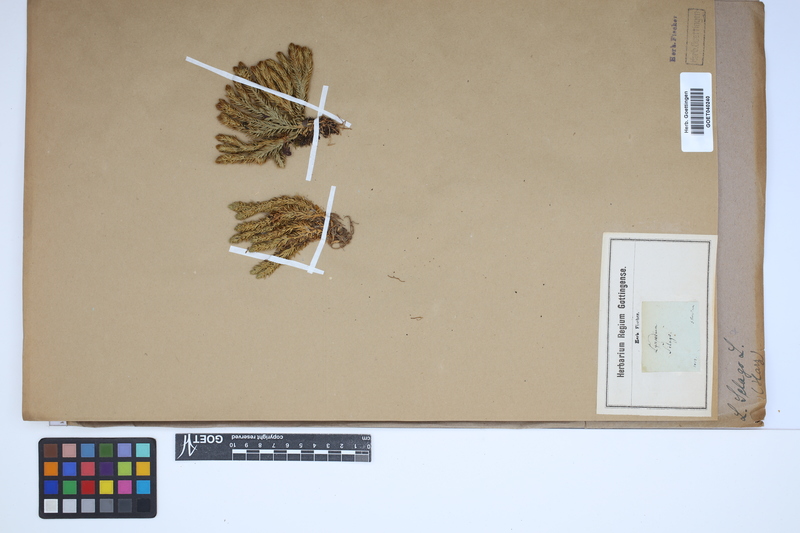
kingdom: Plantae
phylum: Tracheophyta
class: Lycopodiopsida
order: Lycopodiales
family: Lycopodiaceae
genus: Huperzia
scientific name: Huperzia selago
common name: Northern firmoss
